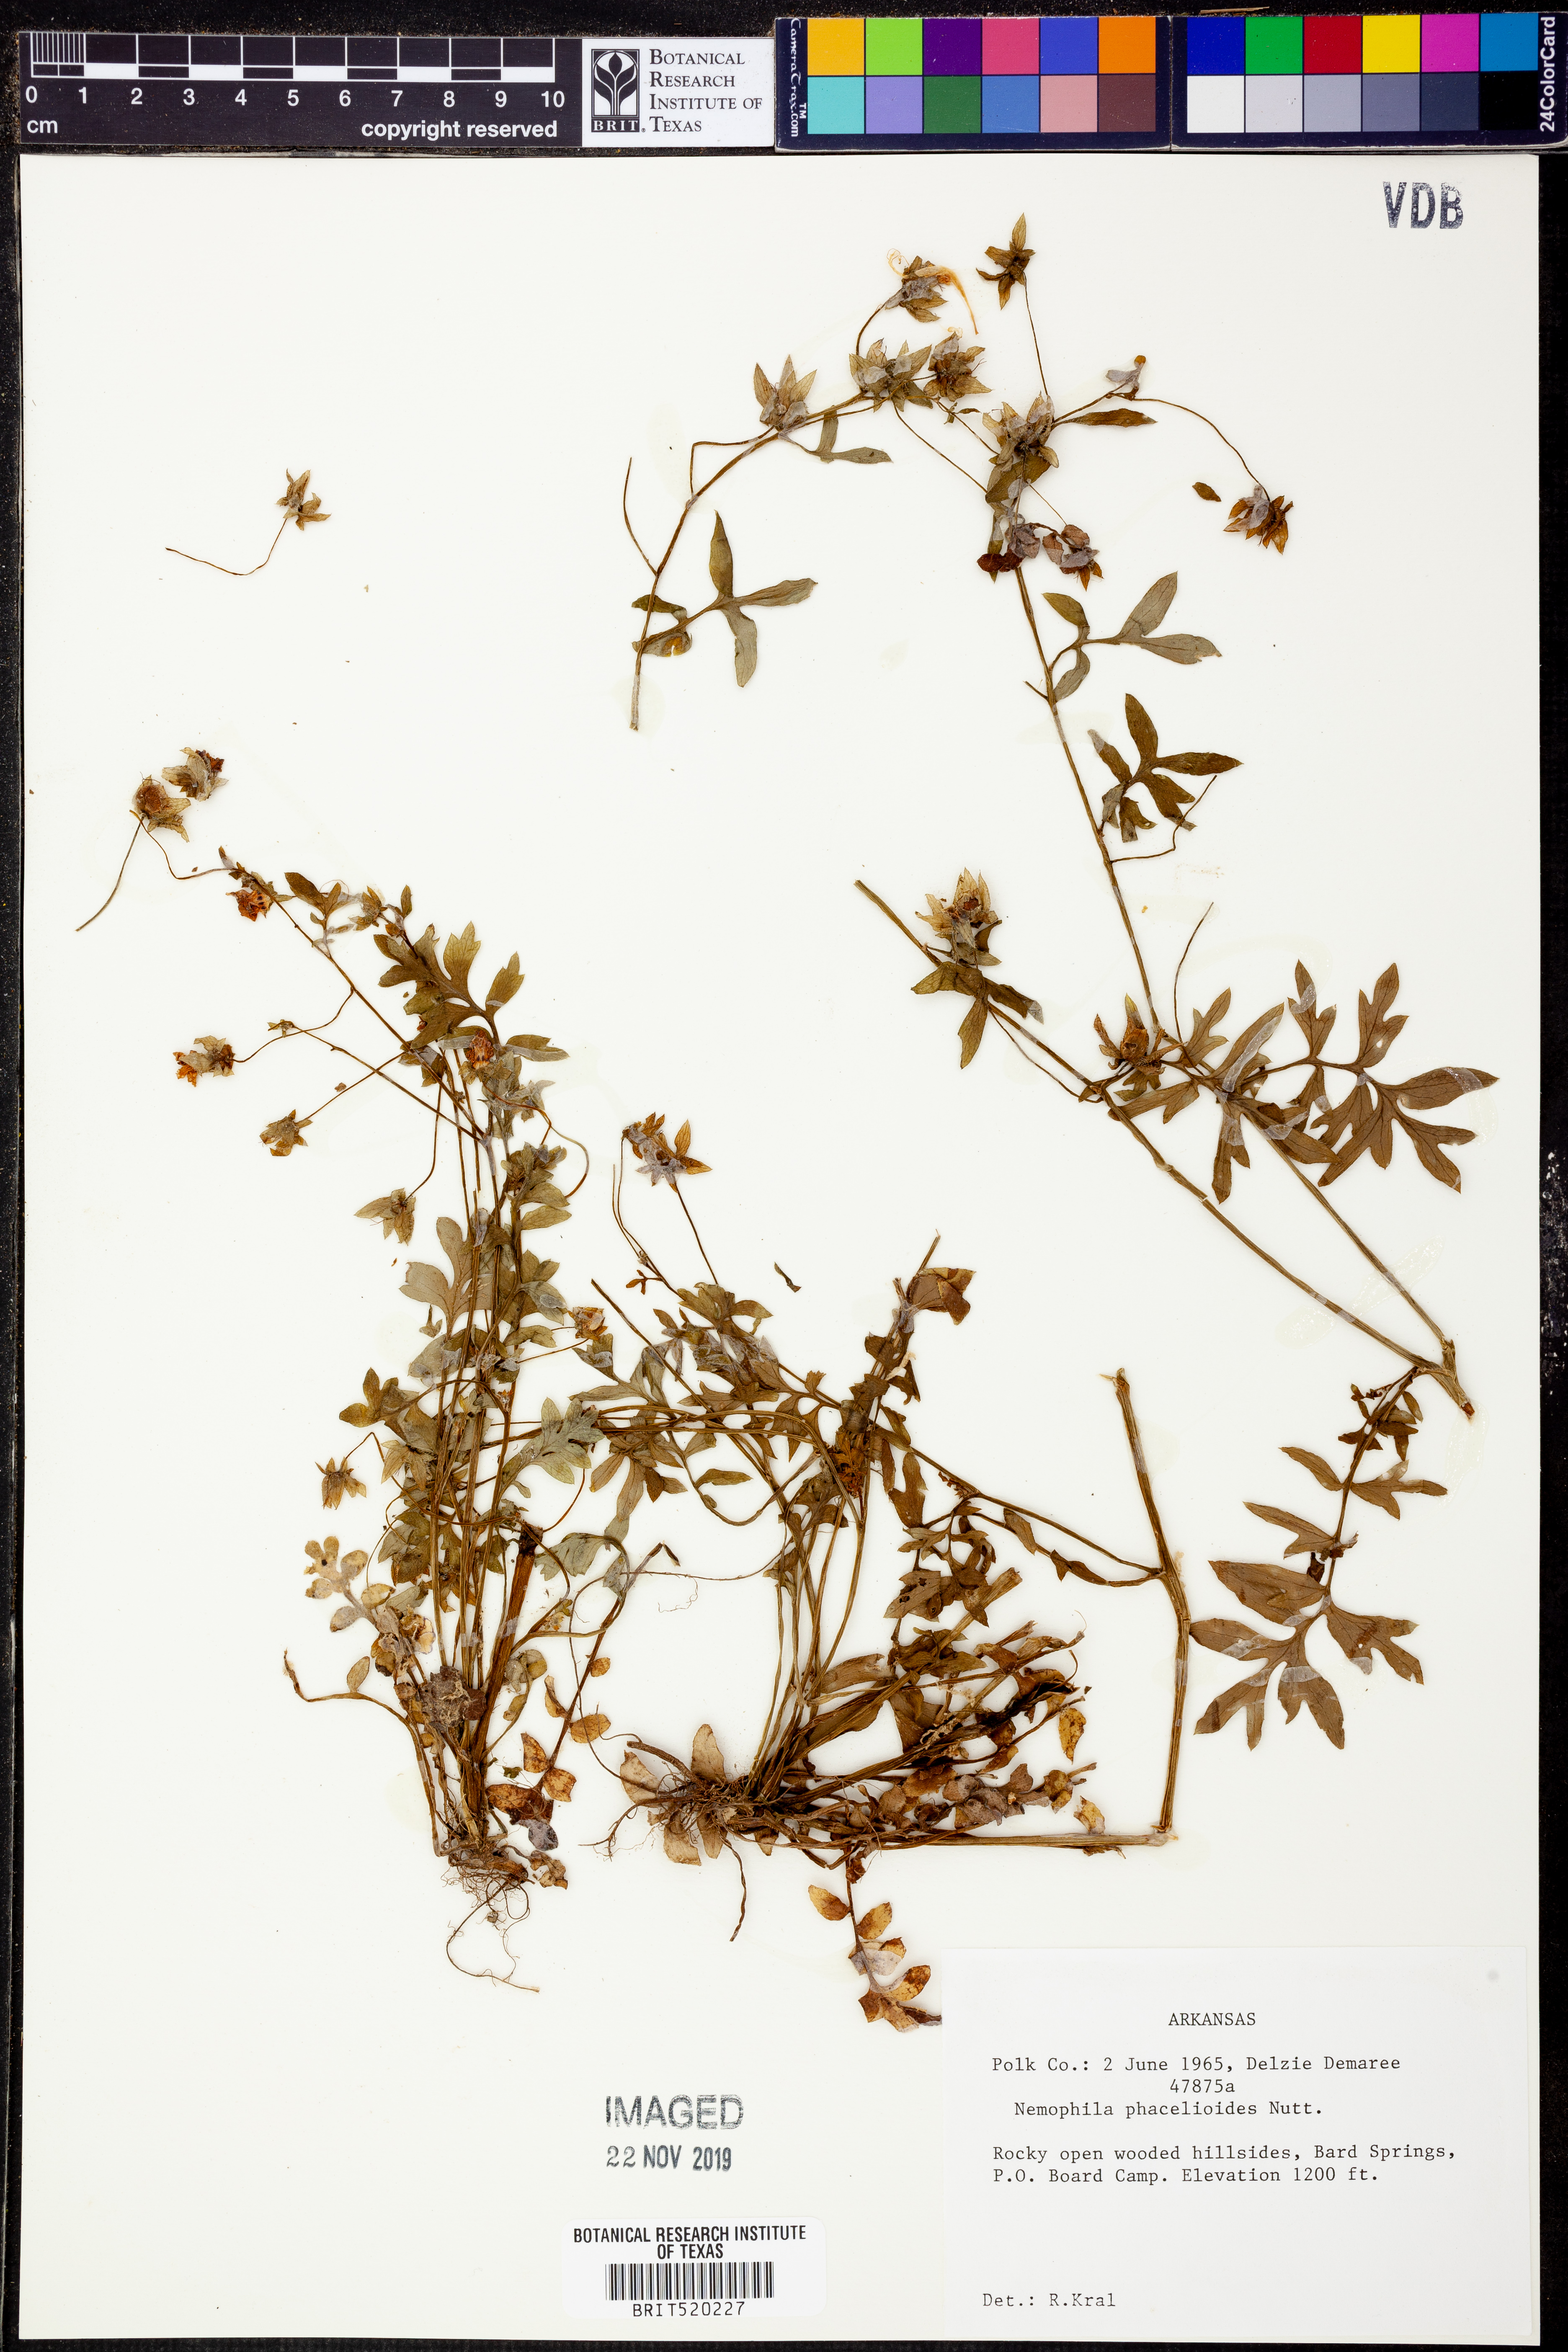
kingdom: Plantae
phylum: Tracheophyta
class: Magnoliopsida
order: Boraginales
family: Hydrophyllaceae
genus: Nemophila
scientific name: Nemophila phacelioides
